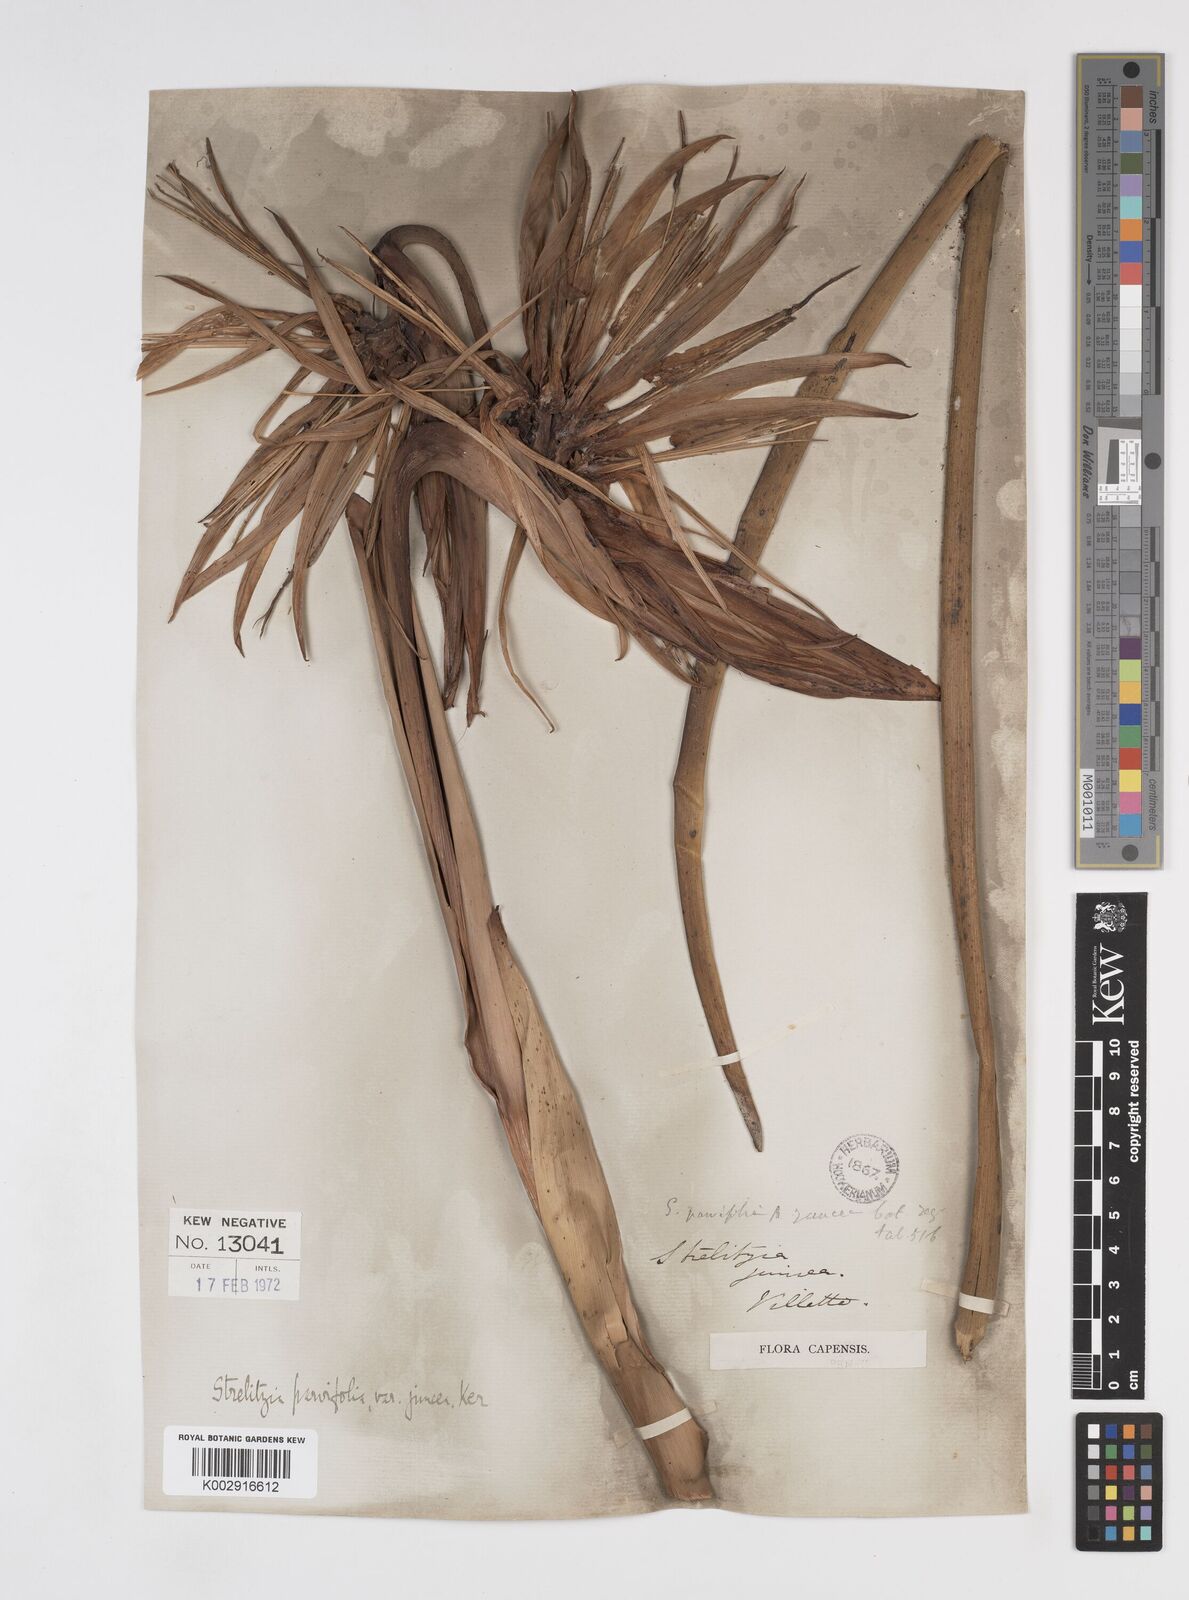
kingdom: Plantae
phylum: Tracheophyta
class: Liliopsida
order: Zingiberales
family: Strelitziaceae
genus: Strelitzia
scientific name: Strelitzia juncea
